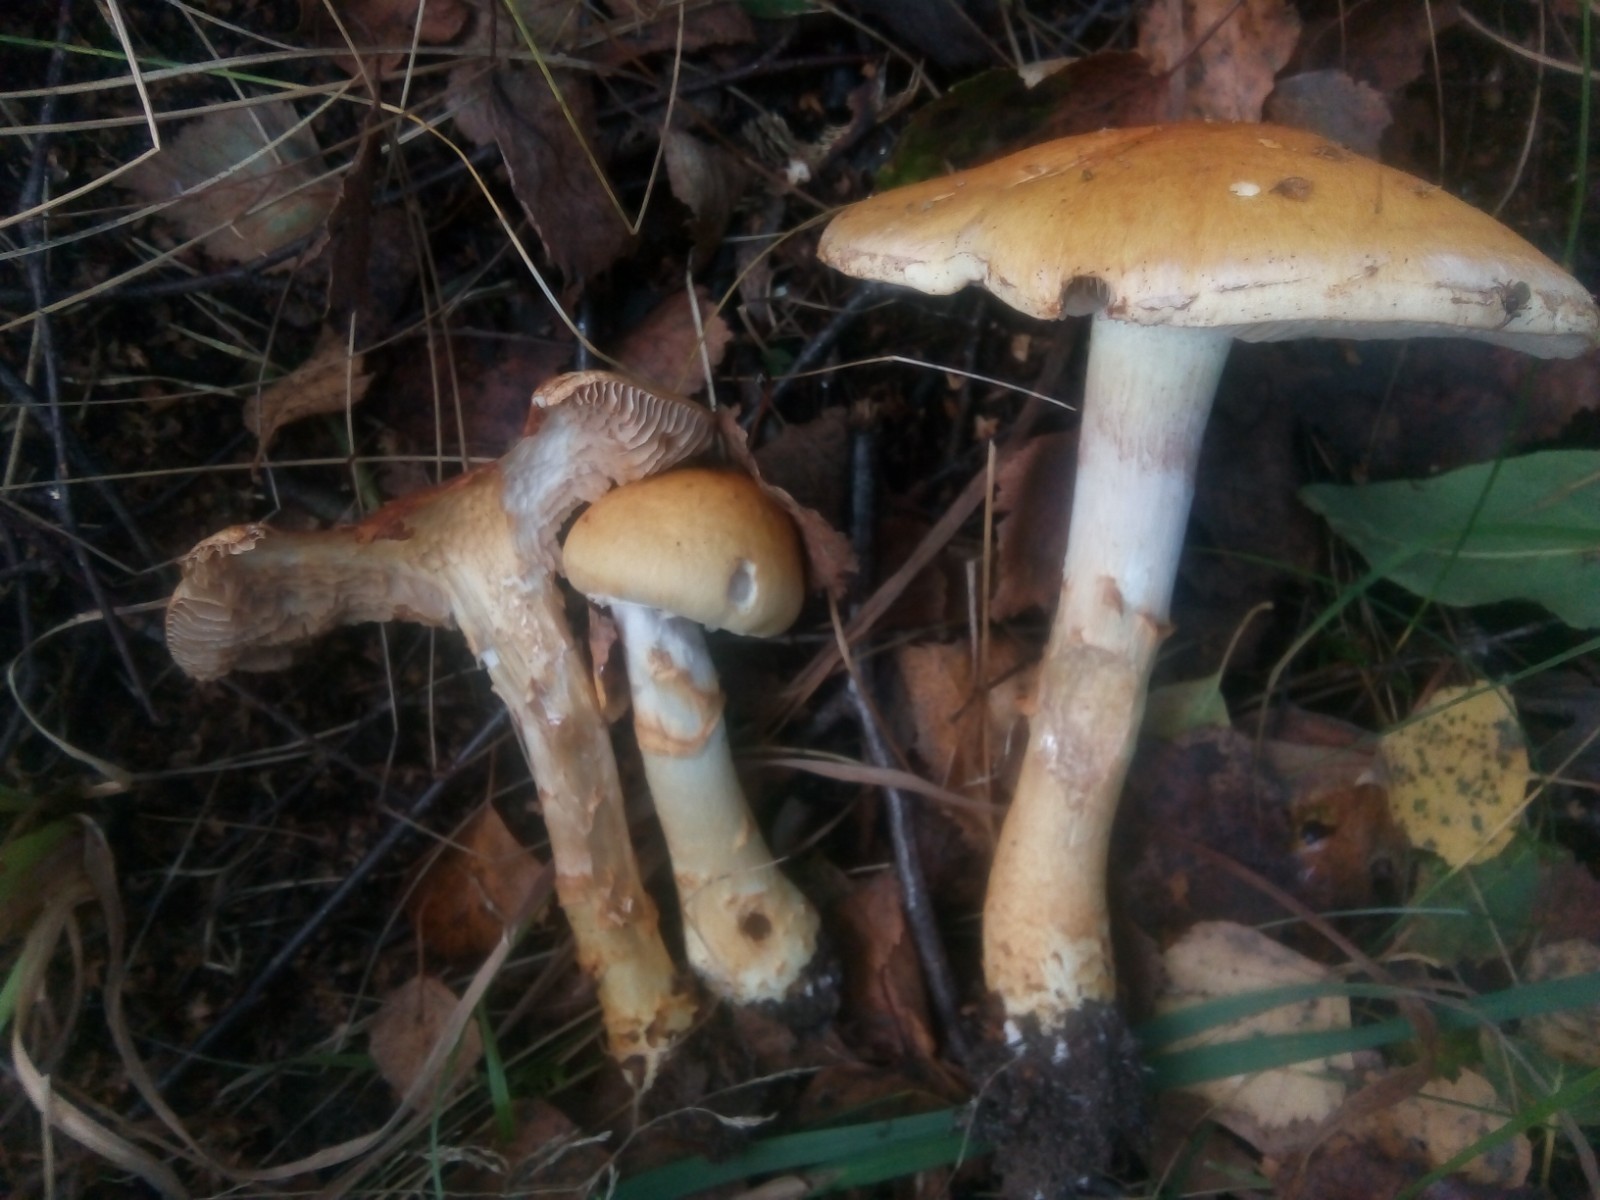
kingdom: Fungi
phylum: Basidiomycota
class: Agaricomycetes
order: Agaricales
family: Cortinariaceae
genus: Phlegmacium
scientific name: Phlegmacium triumphans
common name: gulbæltet slørhat
